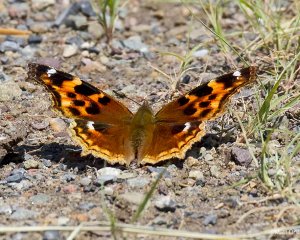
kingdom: Animalia
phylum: Arthropoda
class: Insecta
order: Lepidoptera
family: Nymphalidae
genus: Polygonia
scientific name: Polygonia vaualbum
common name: Compton Tortoiseshell
